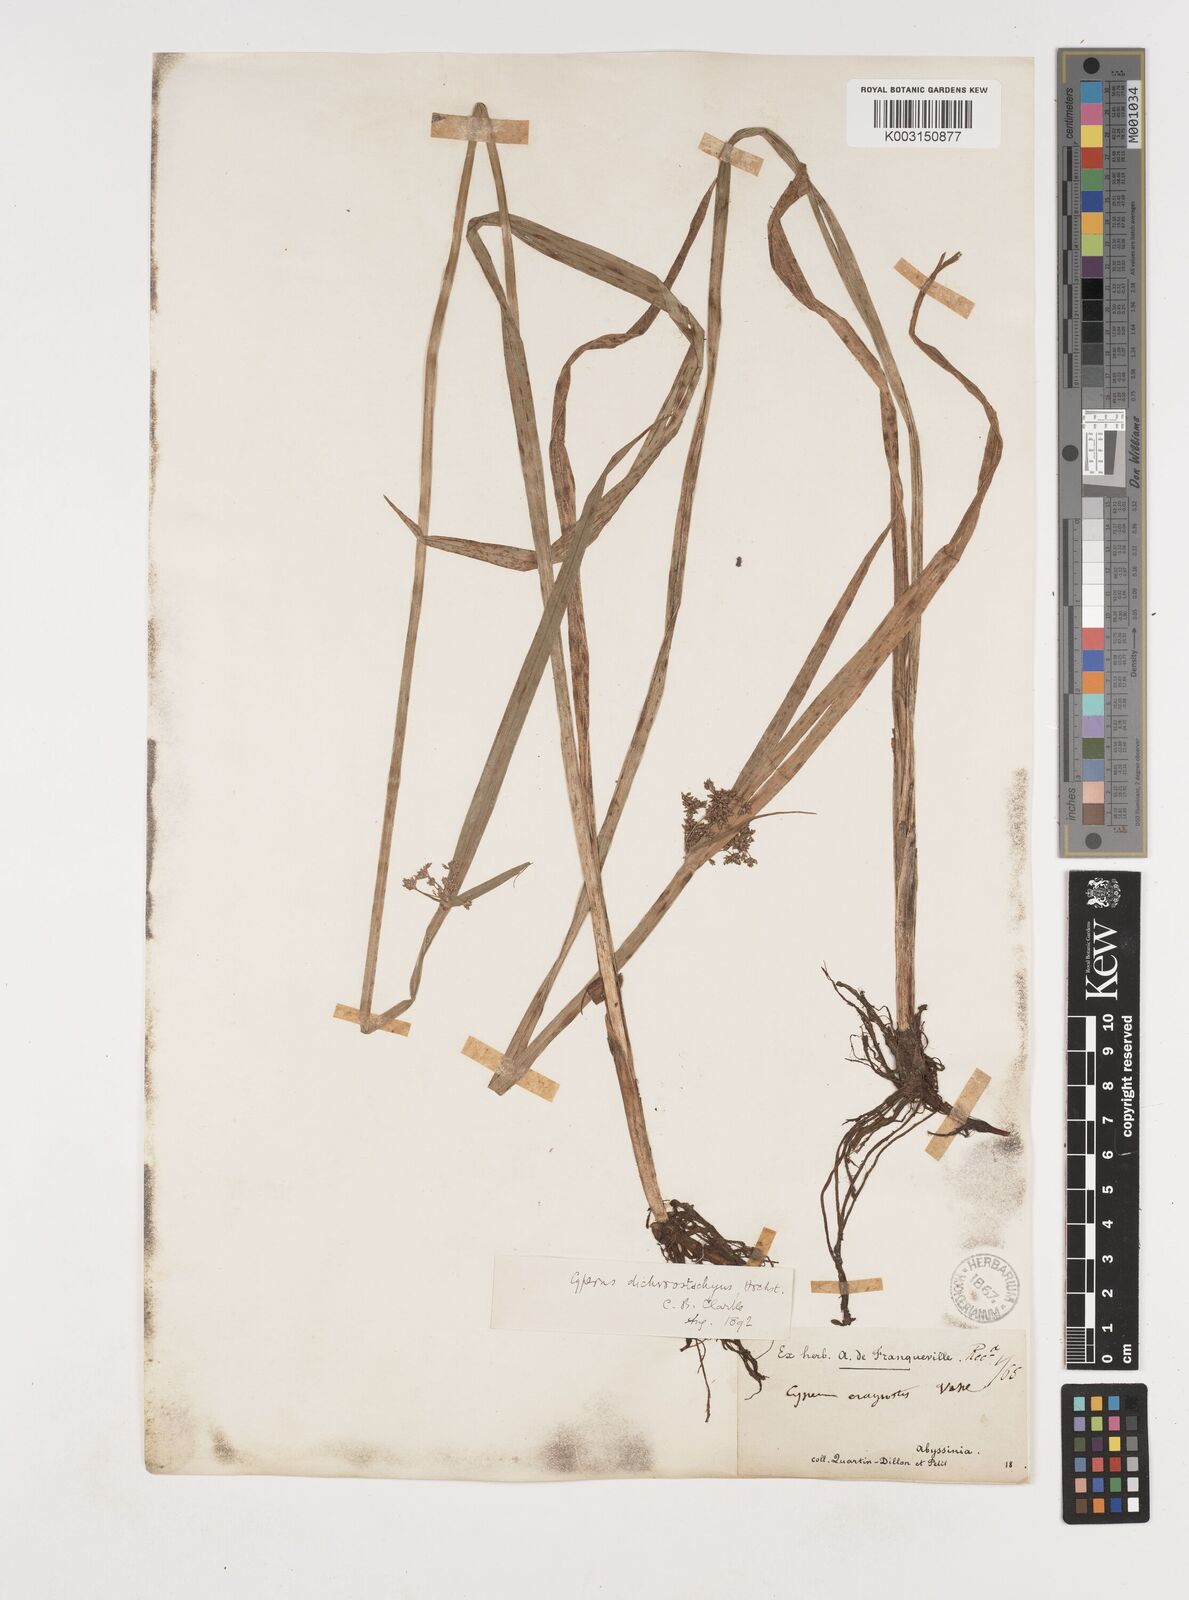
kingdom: Plantae
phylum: Tracheophyta
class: Liliopsida
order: Poales
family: Cyperaceae
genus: Cyperus
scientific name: Cyperus dichrostachyus
